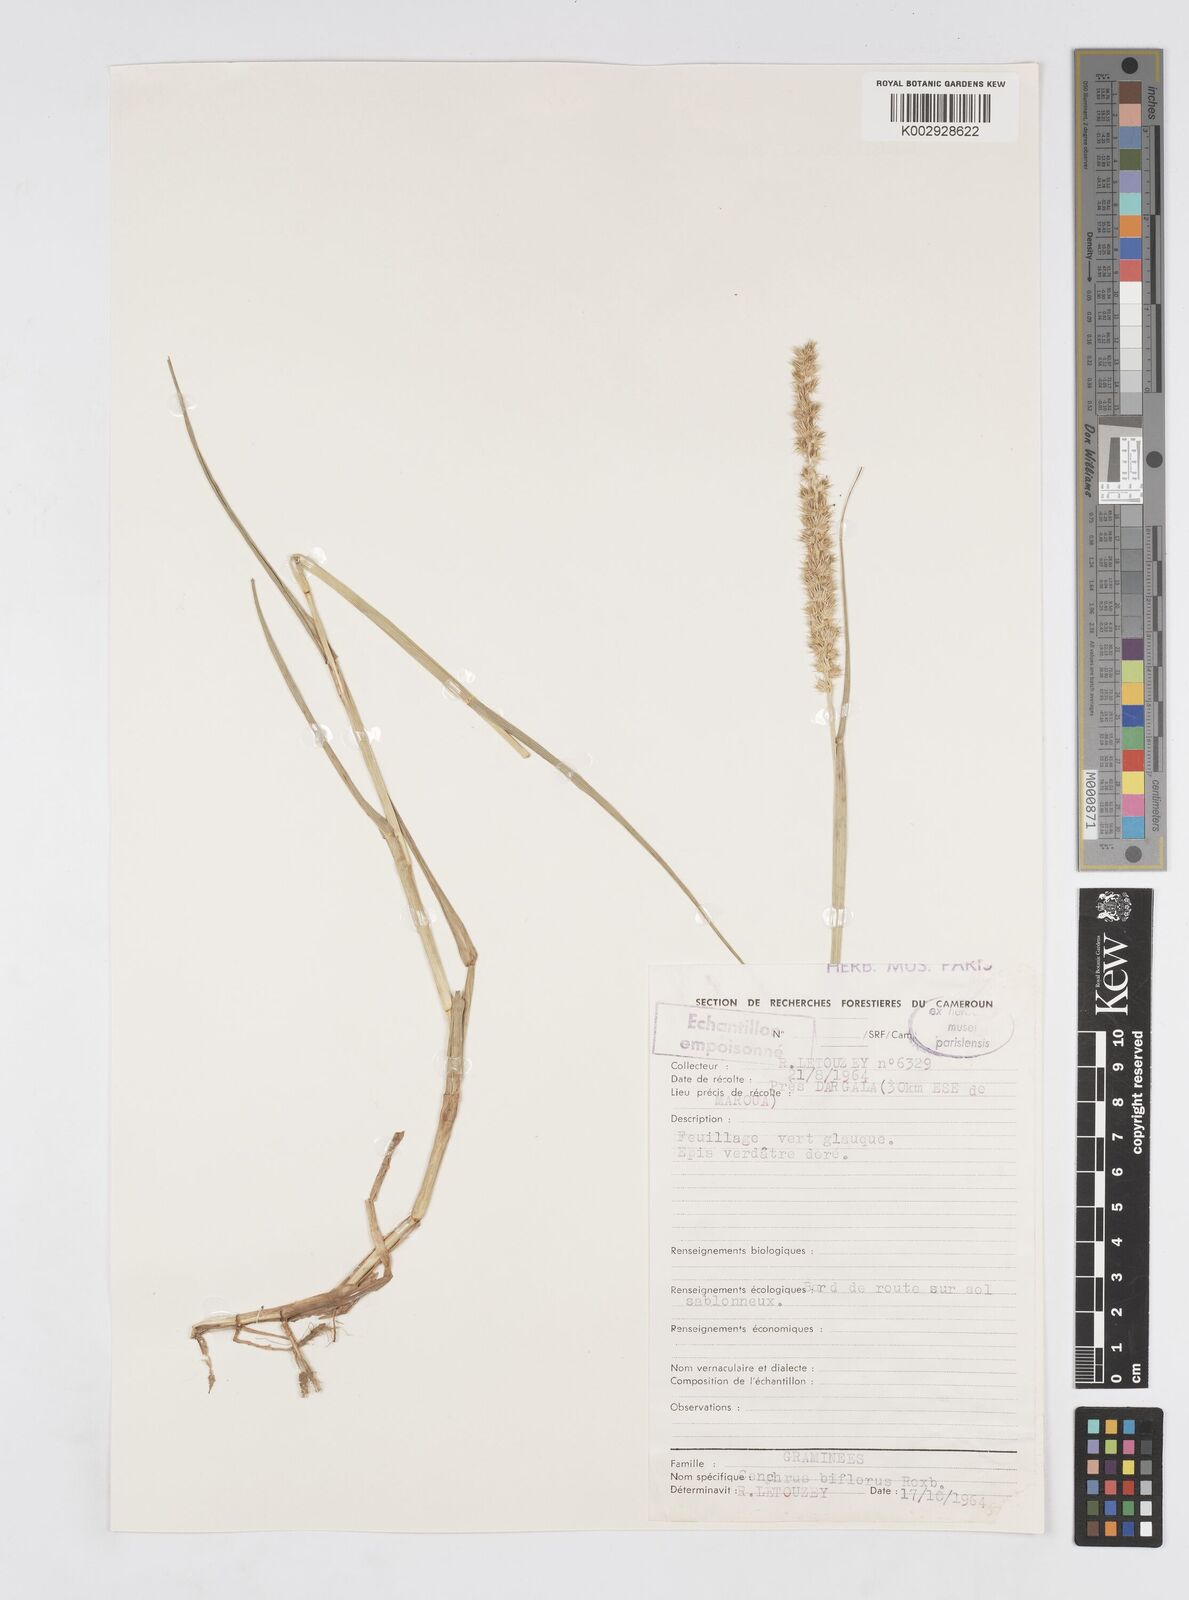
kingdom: Plantae
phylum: Tracheophyta
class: Liliopsida
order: Poales
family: Poaceae
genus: Cenchrus
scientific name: Cenchrus biflorus
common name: Indian sandbur
